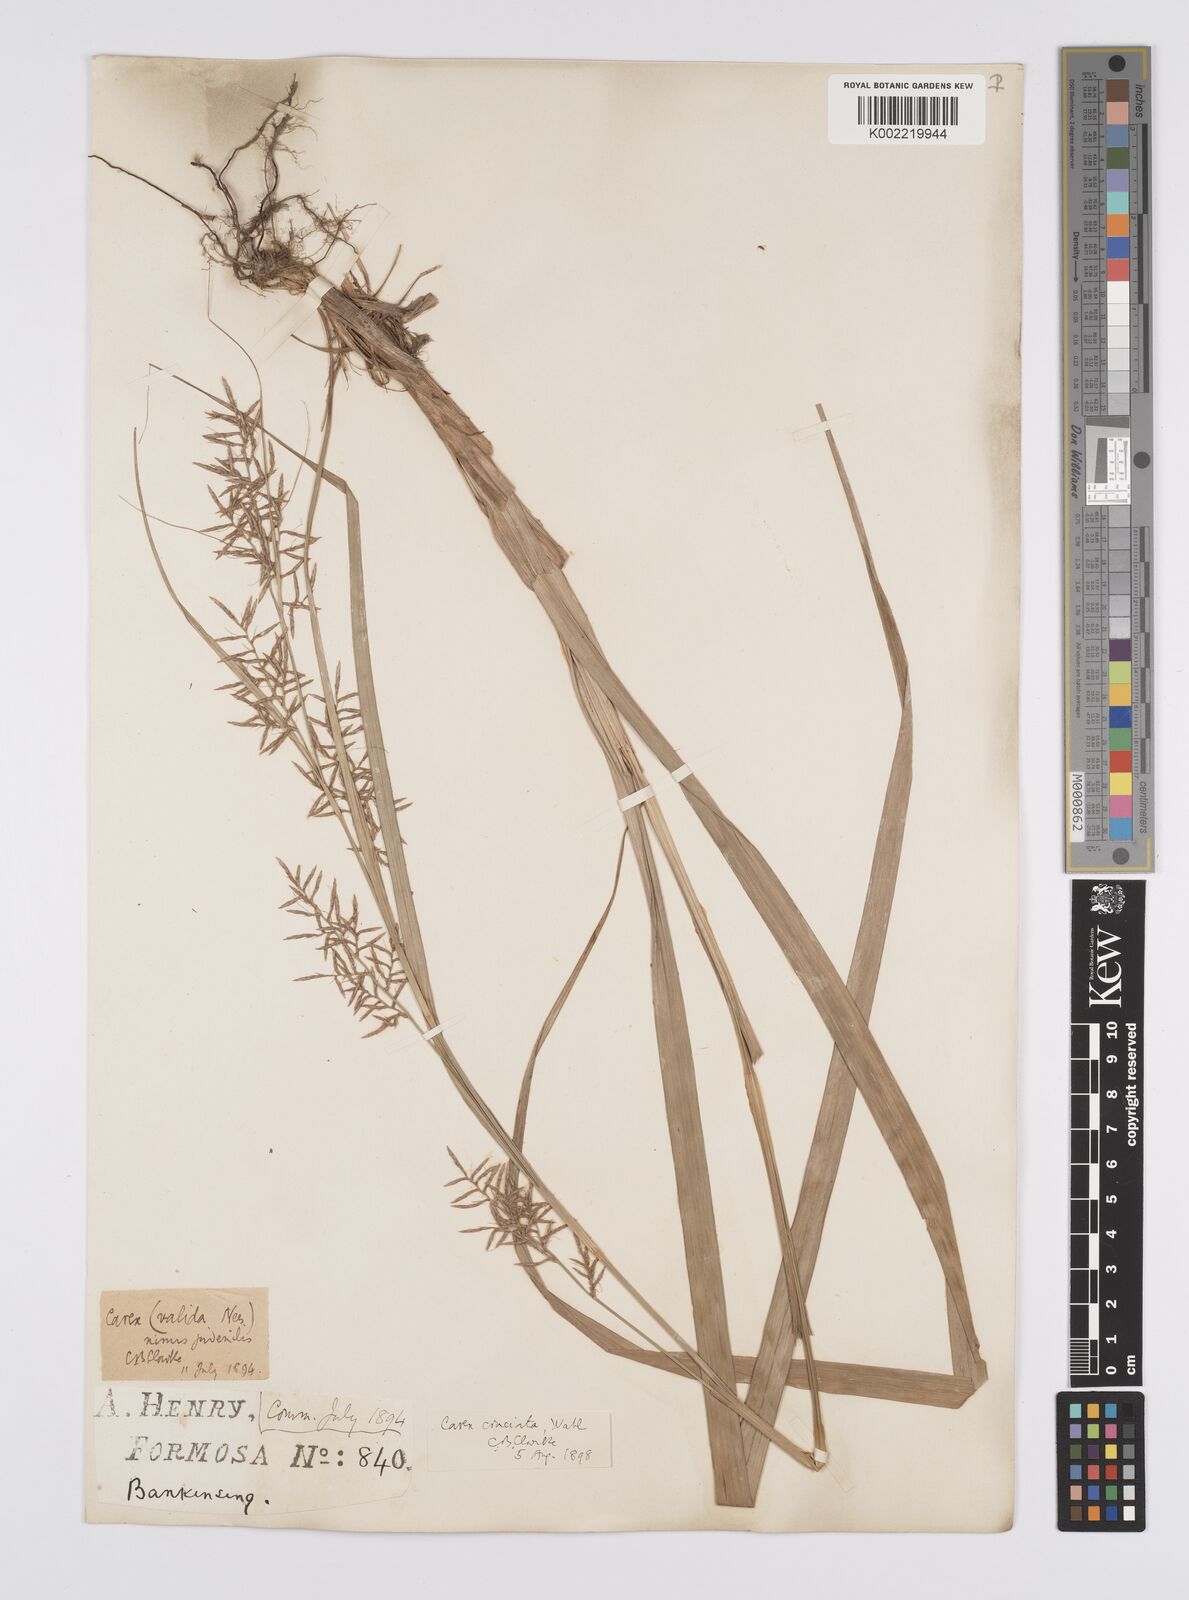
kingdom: Plantae
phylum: Tracheophyta
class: Liliopsida
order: Poales
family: Cyperaceae
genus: Carex
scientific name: Carex cruciata
